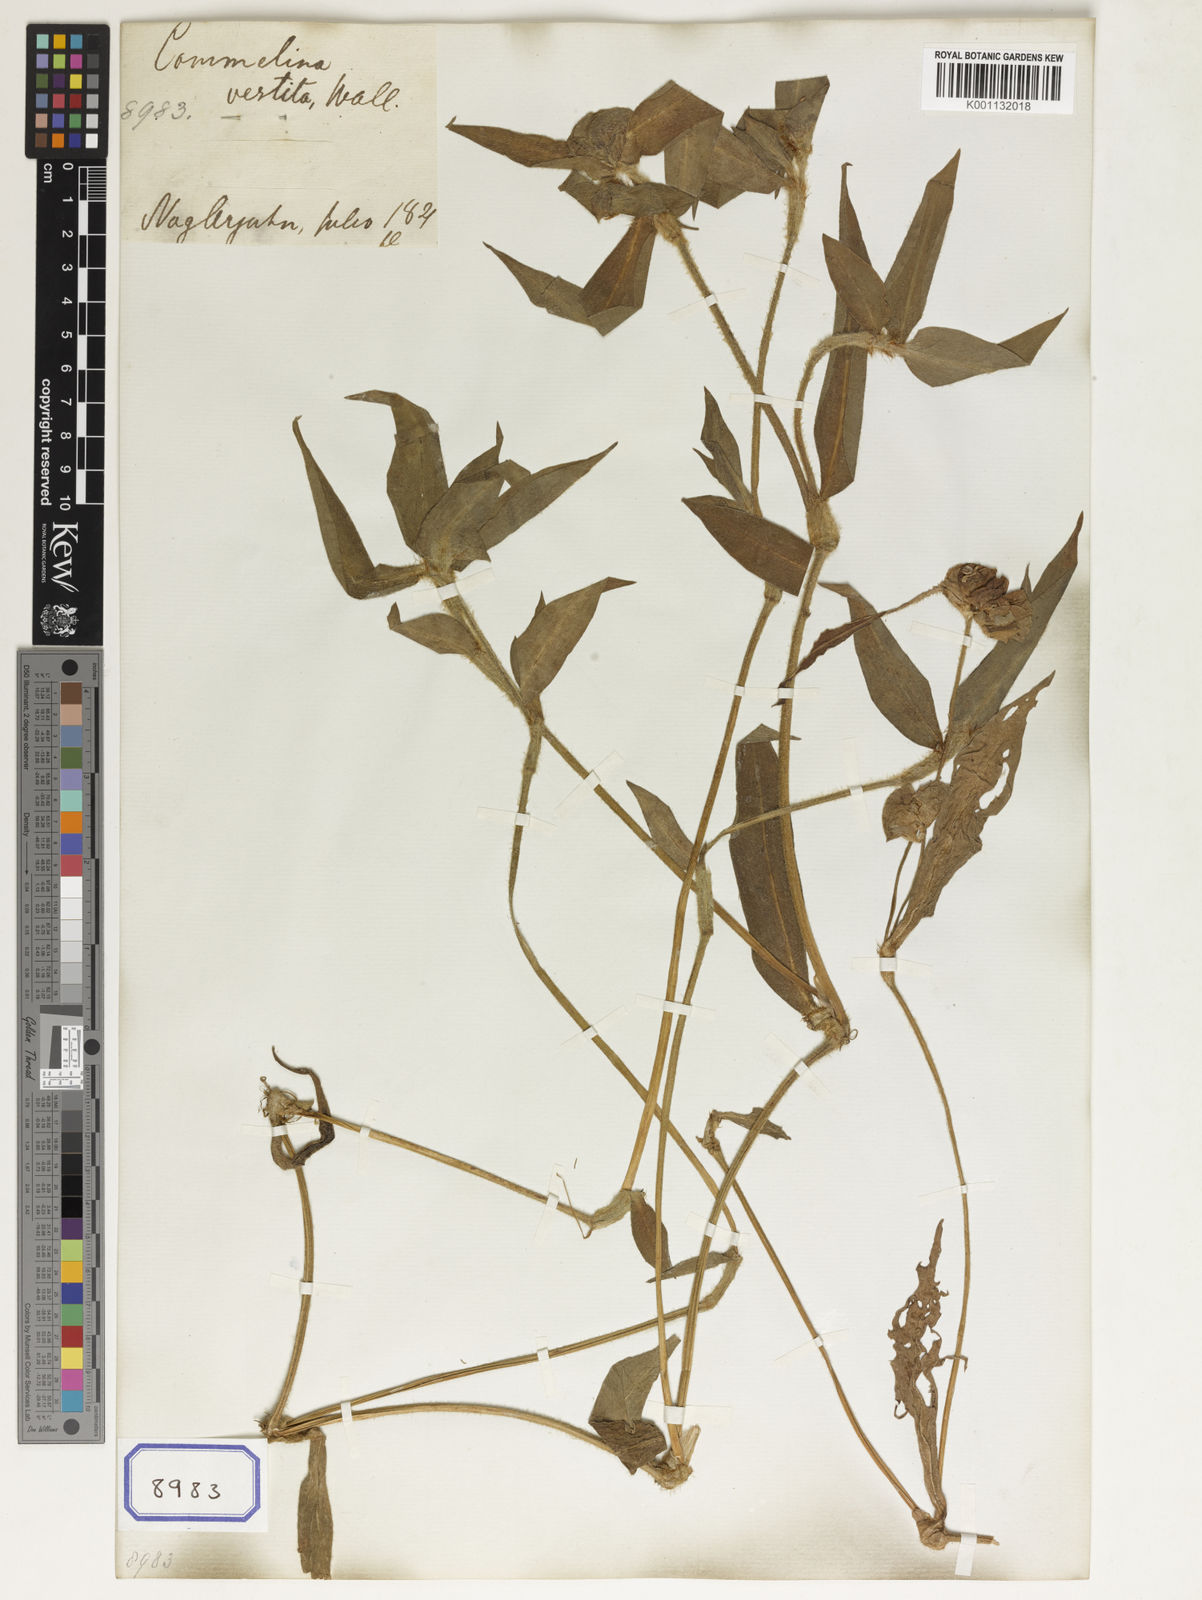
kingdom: Plantae
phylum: Tracheophyta
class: Liliopsida
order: Commelinales
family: Commelinaceae
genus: Commelina
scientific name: Commelina maculata
